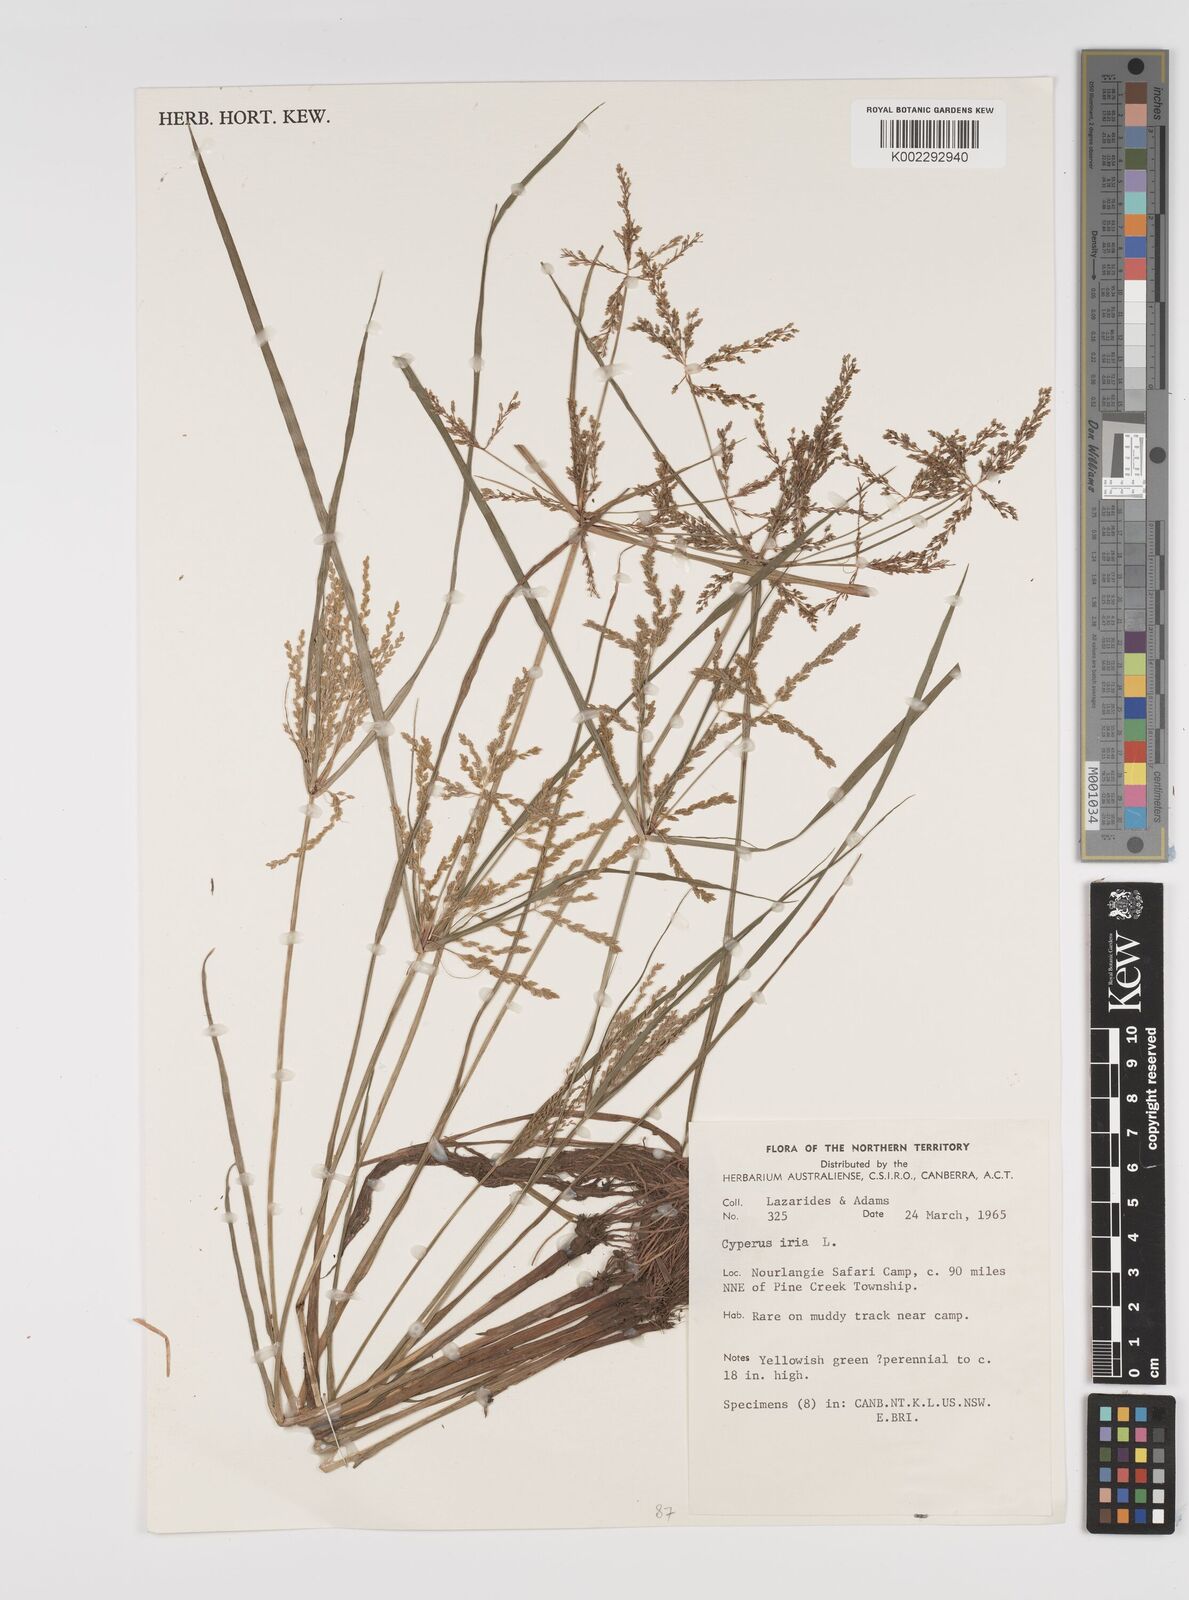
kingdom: Plantae
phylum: Tracheophyta
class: Liliopsida
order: Poales
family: Cyperaceae
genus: Cyperus
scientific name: Cyperus iria
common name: Ricefield flatsedge
